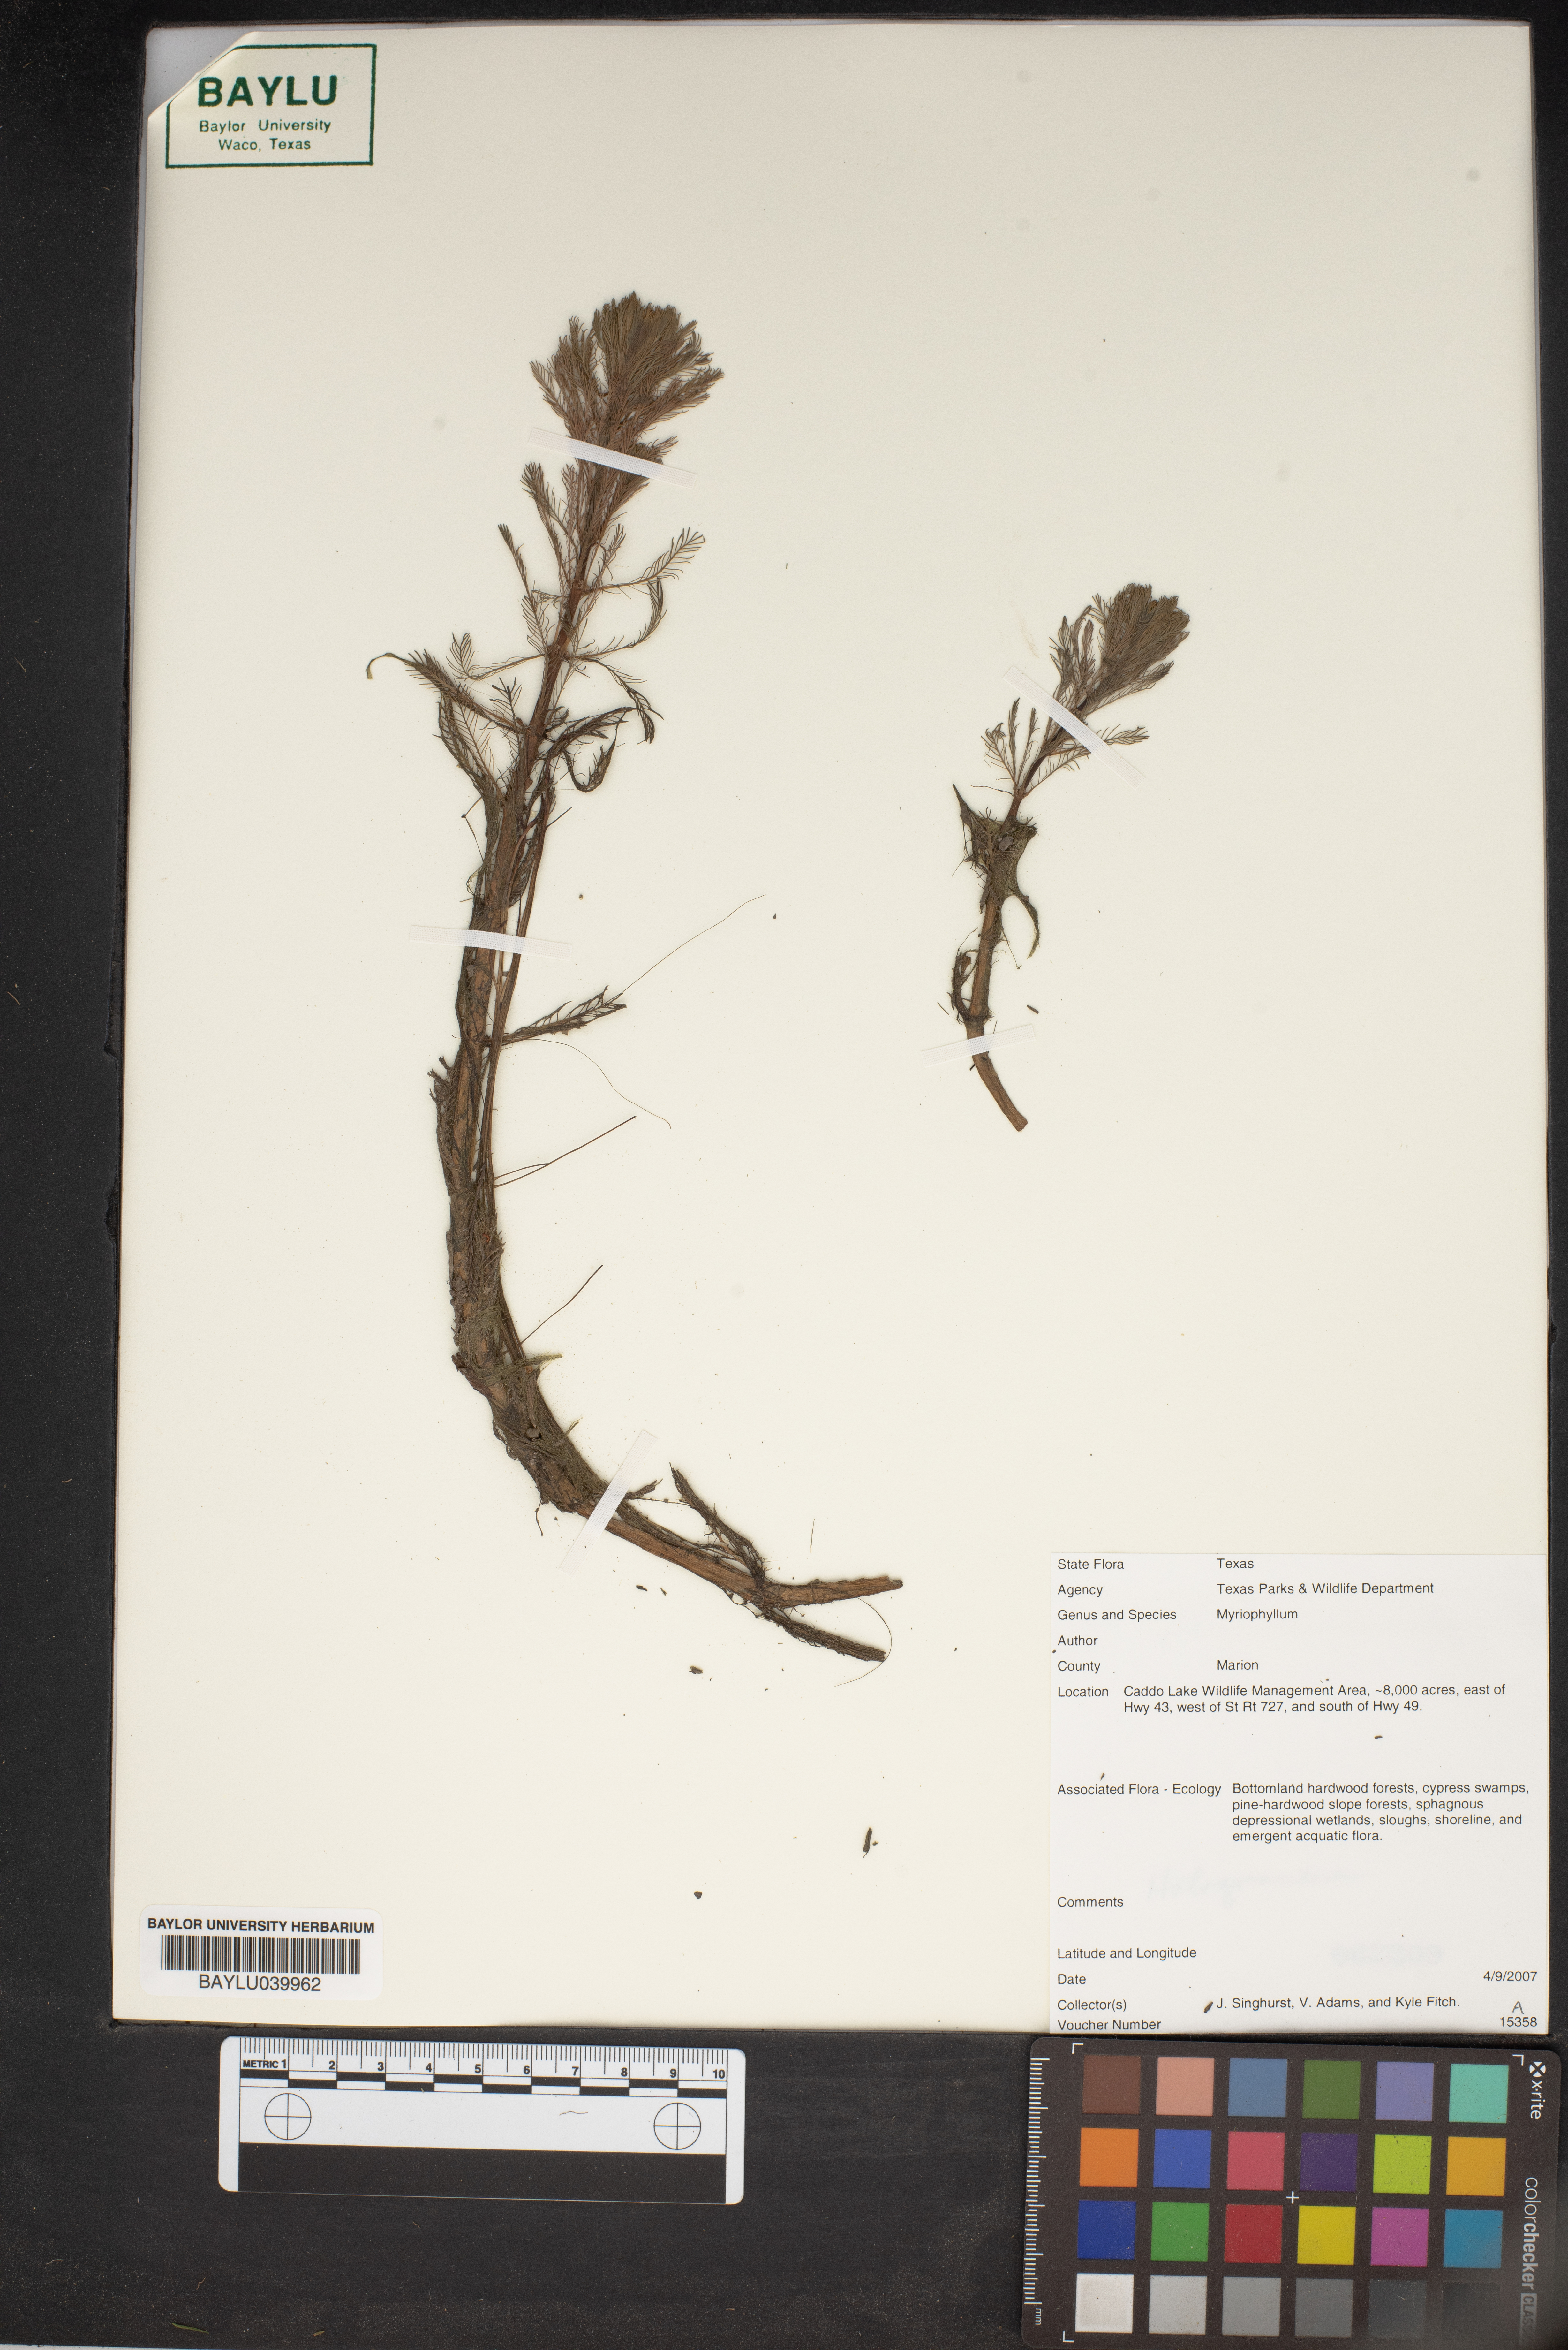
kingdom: Plantae
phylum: Tracheophyta
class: Magnoliopsida
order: Saxifragales
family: Haloragaceae
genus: Myriophyllum
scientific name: Myriophyllum
